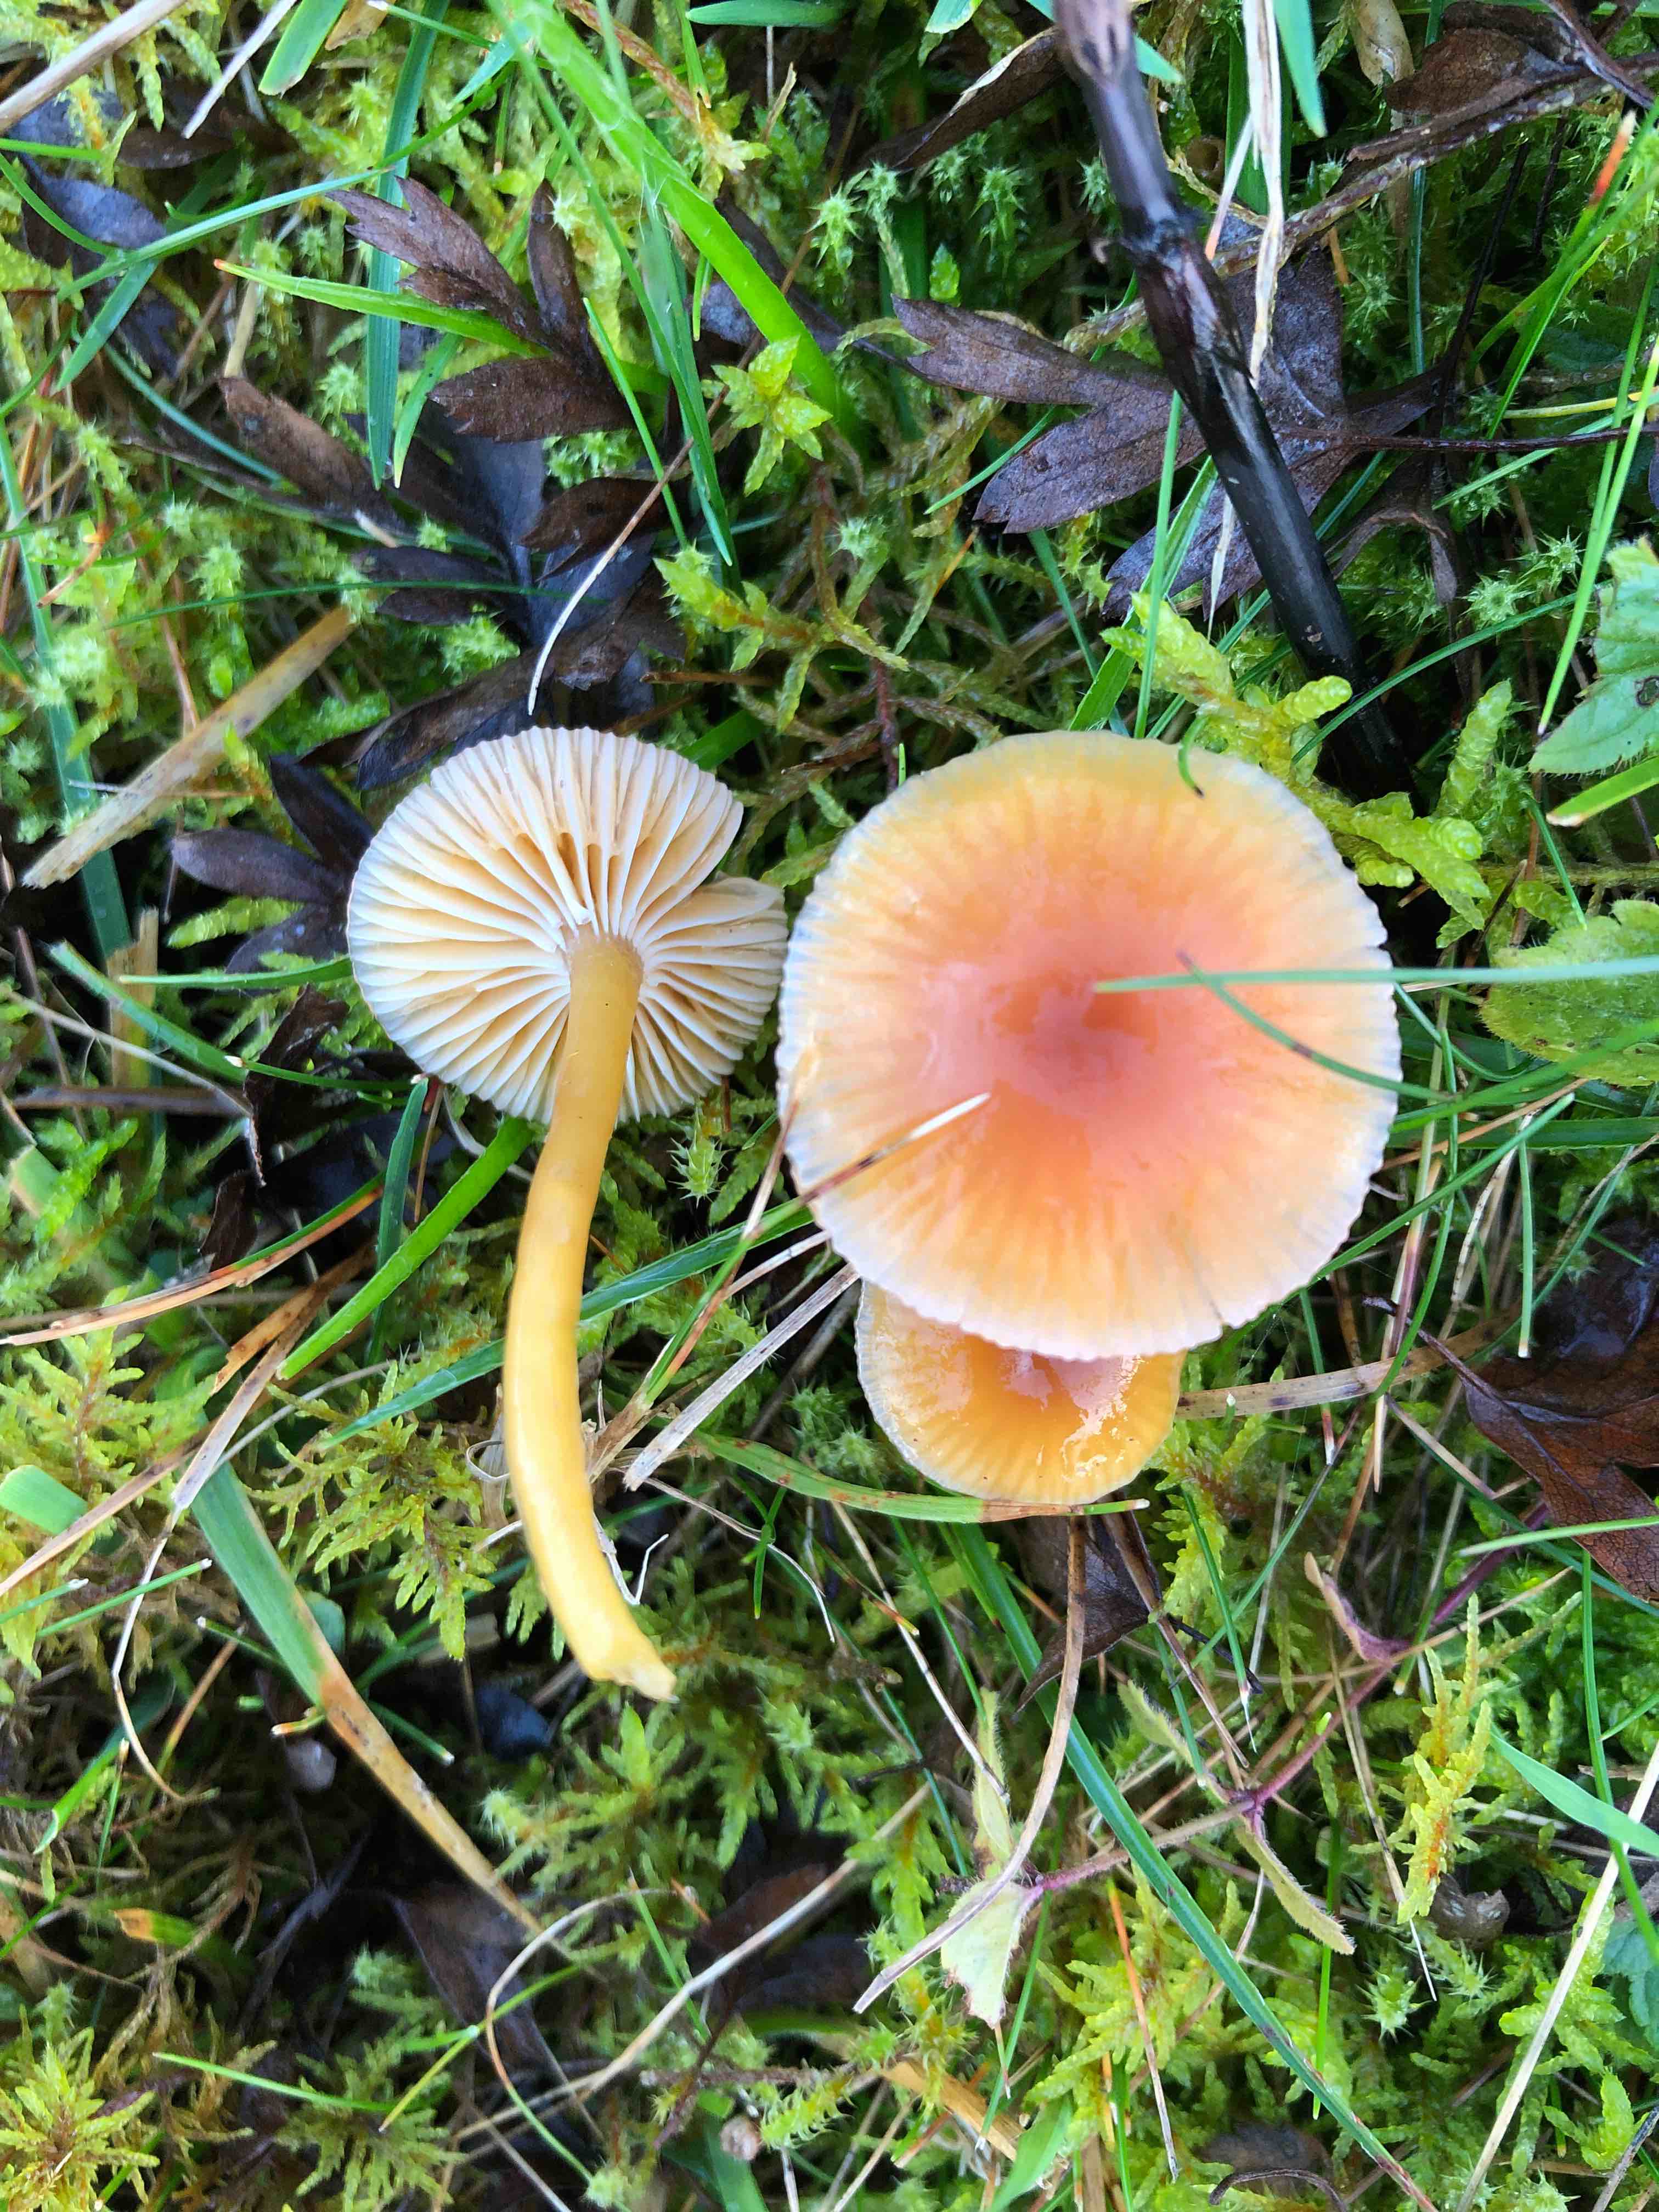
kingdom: Fungi
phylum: Basidiomycota
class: Agaricomycetes
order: Agaricales
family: Hygrophoraceae
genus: Gliophorus
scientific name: Gliophorus laetus
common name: brusk-vokshat
